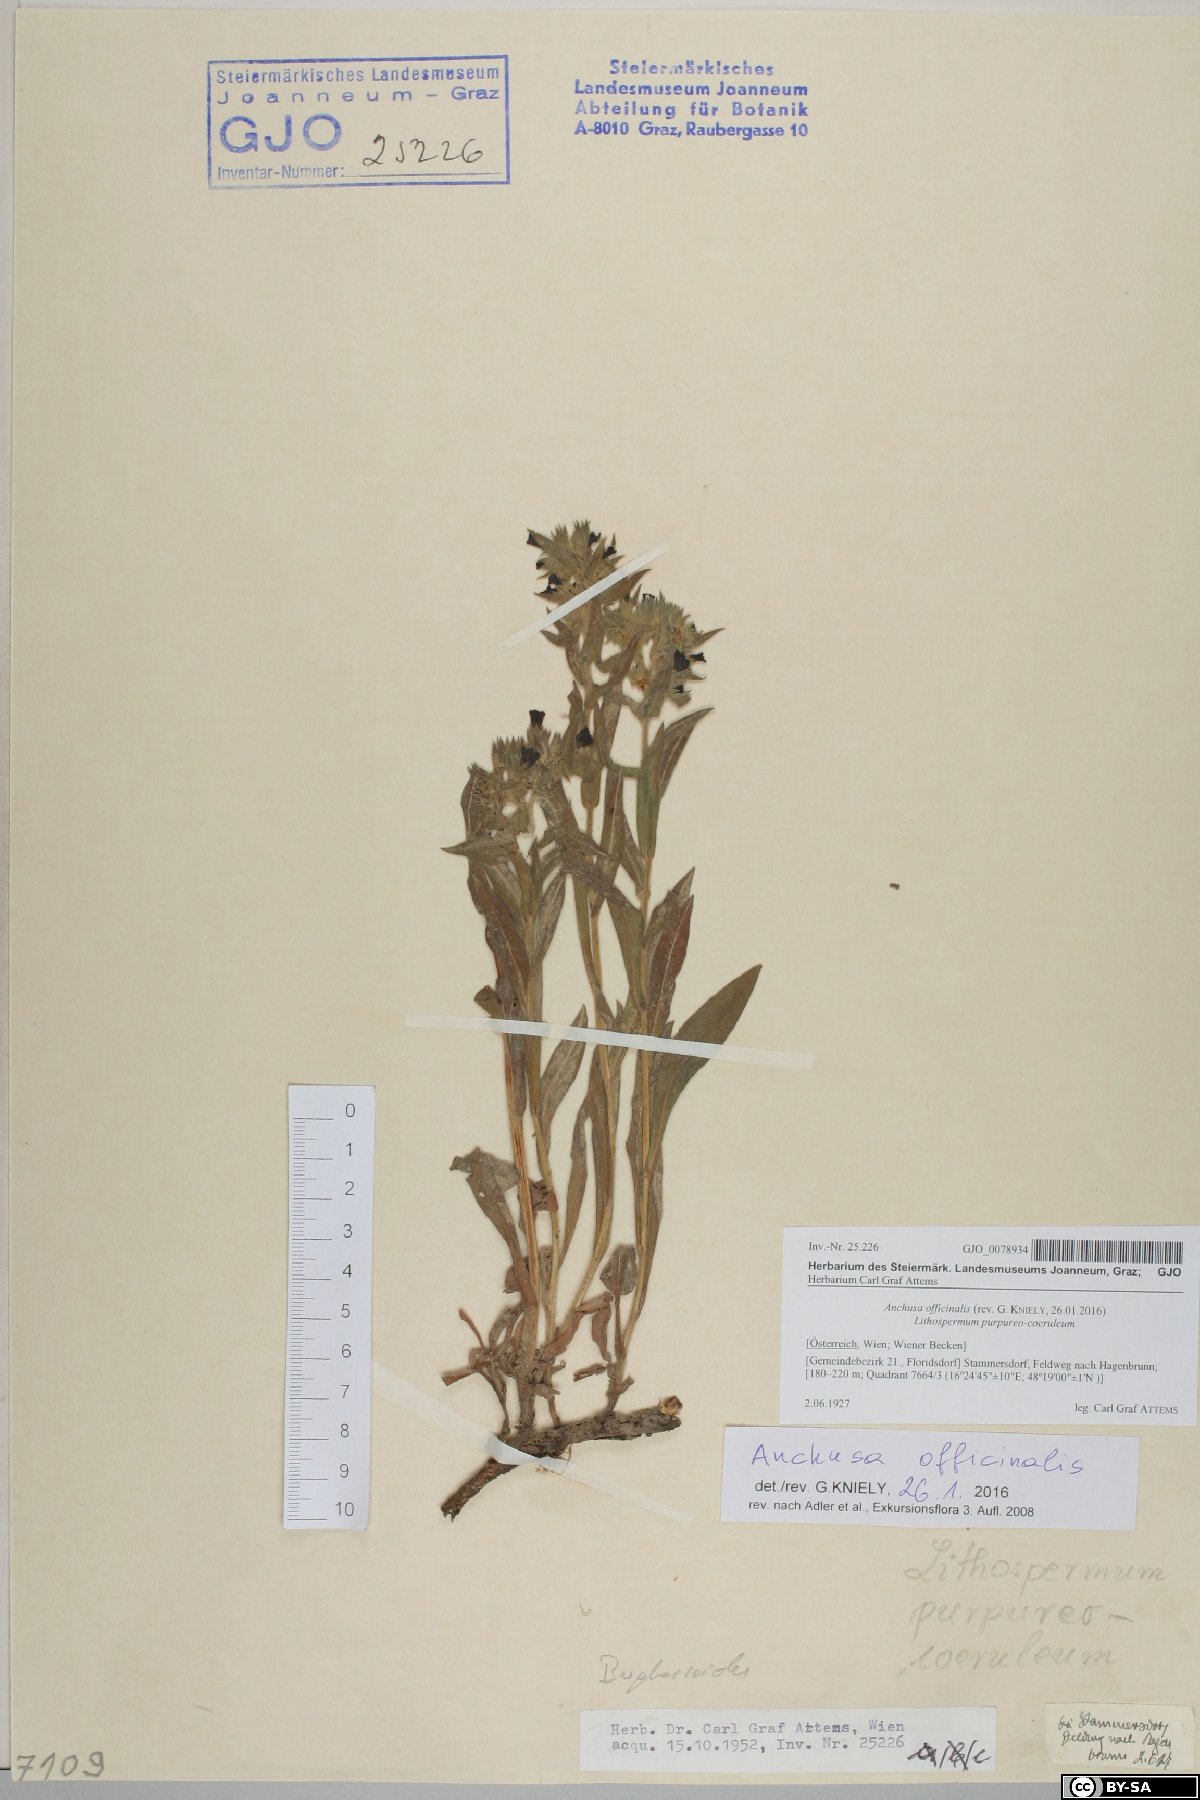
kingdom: Plantae
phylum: Tracheophyta
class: Magnoliopsida
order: Boraginales
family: Boraginaceae
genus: Anchusa
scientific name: Anchusa officinalis
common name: Alkanet
